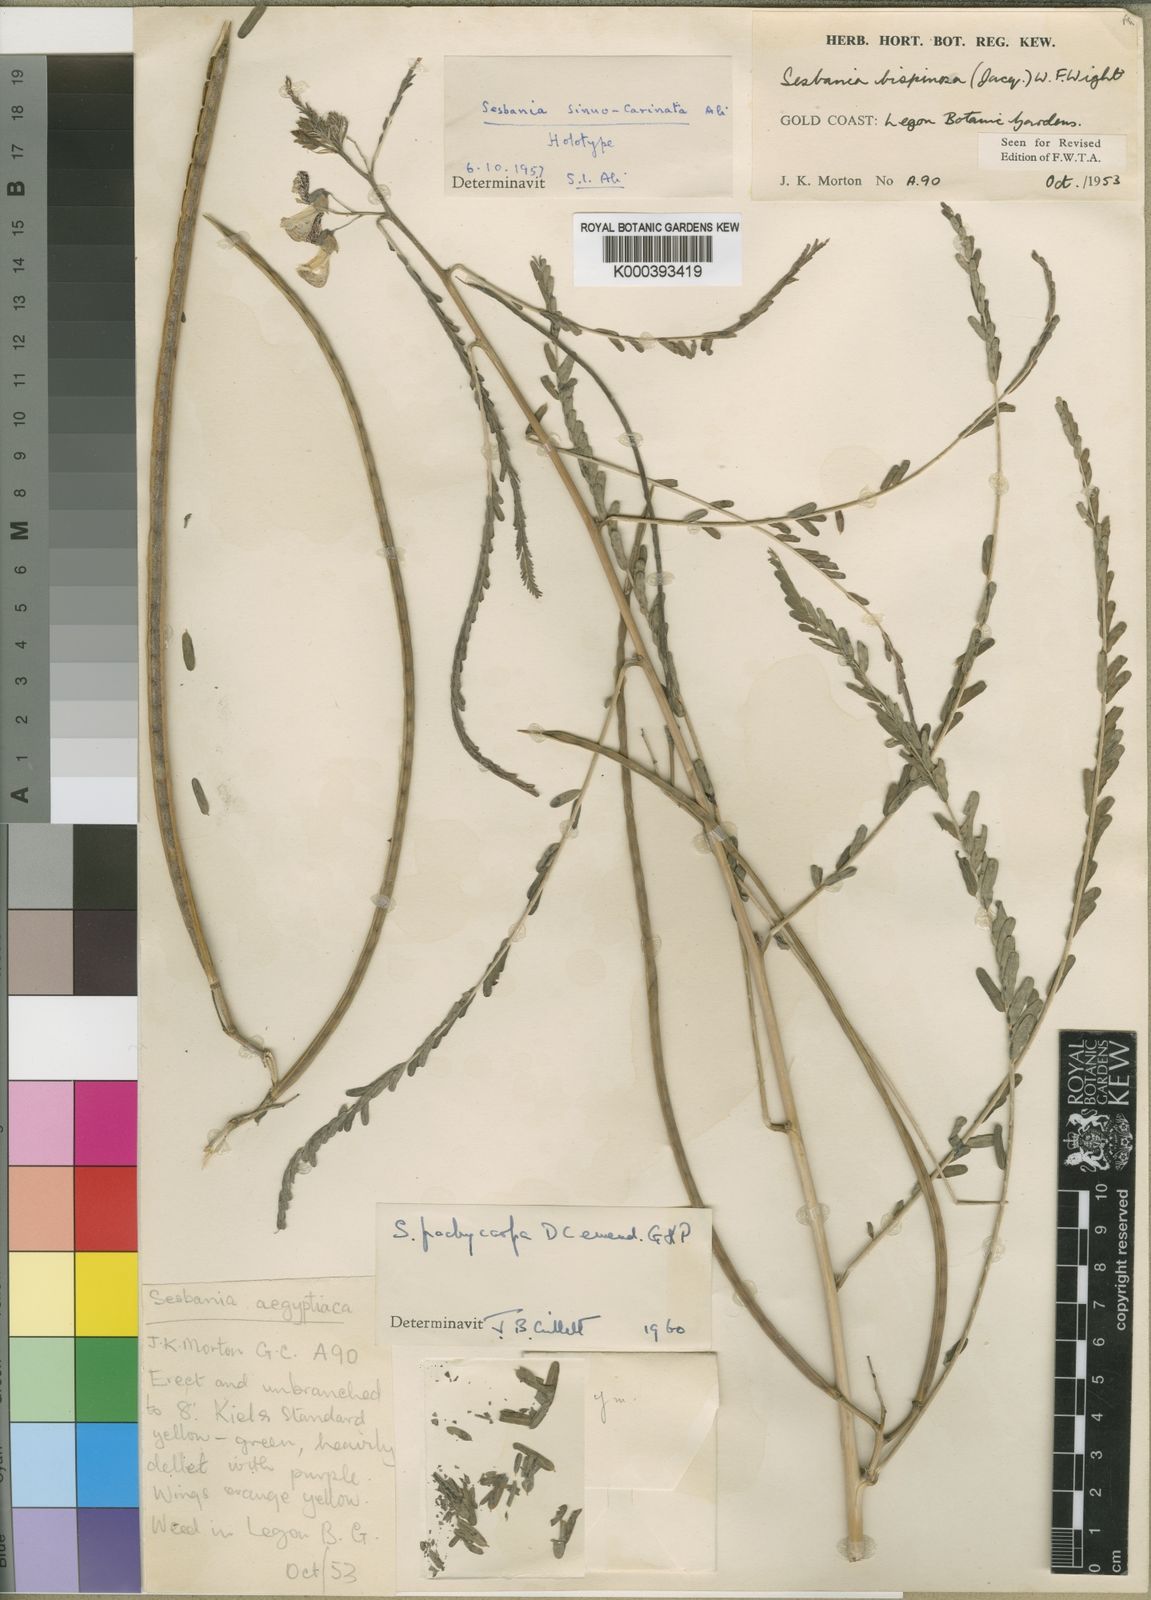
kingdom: Plantae
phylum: Tracheophyta
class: Magnoliopsida
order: Fabales
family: Fabaceae
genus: Sesbania
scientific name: Sesbania pachycarpa
